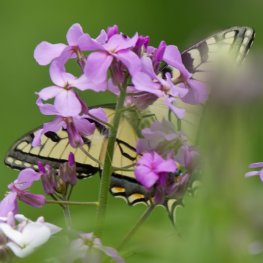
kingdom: Animalia
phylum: Arthropoda
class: Insecta
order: Lepidoptera
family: Papilionidae
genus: Pterourus
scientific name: Pterourus canadensis
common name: Canadian Tiger Swallowtail
